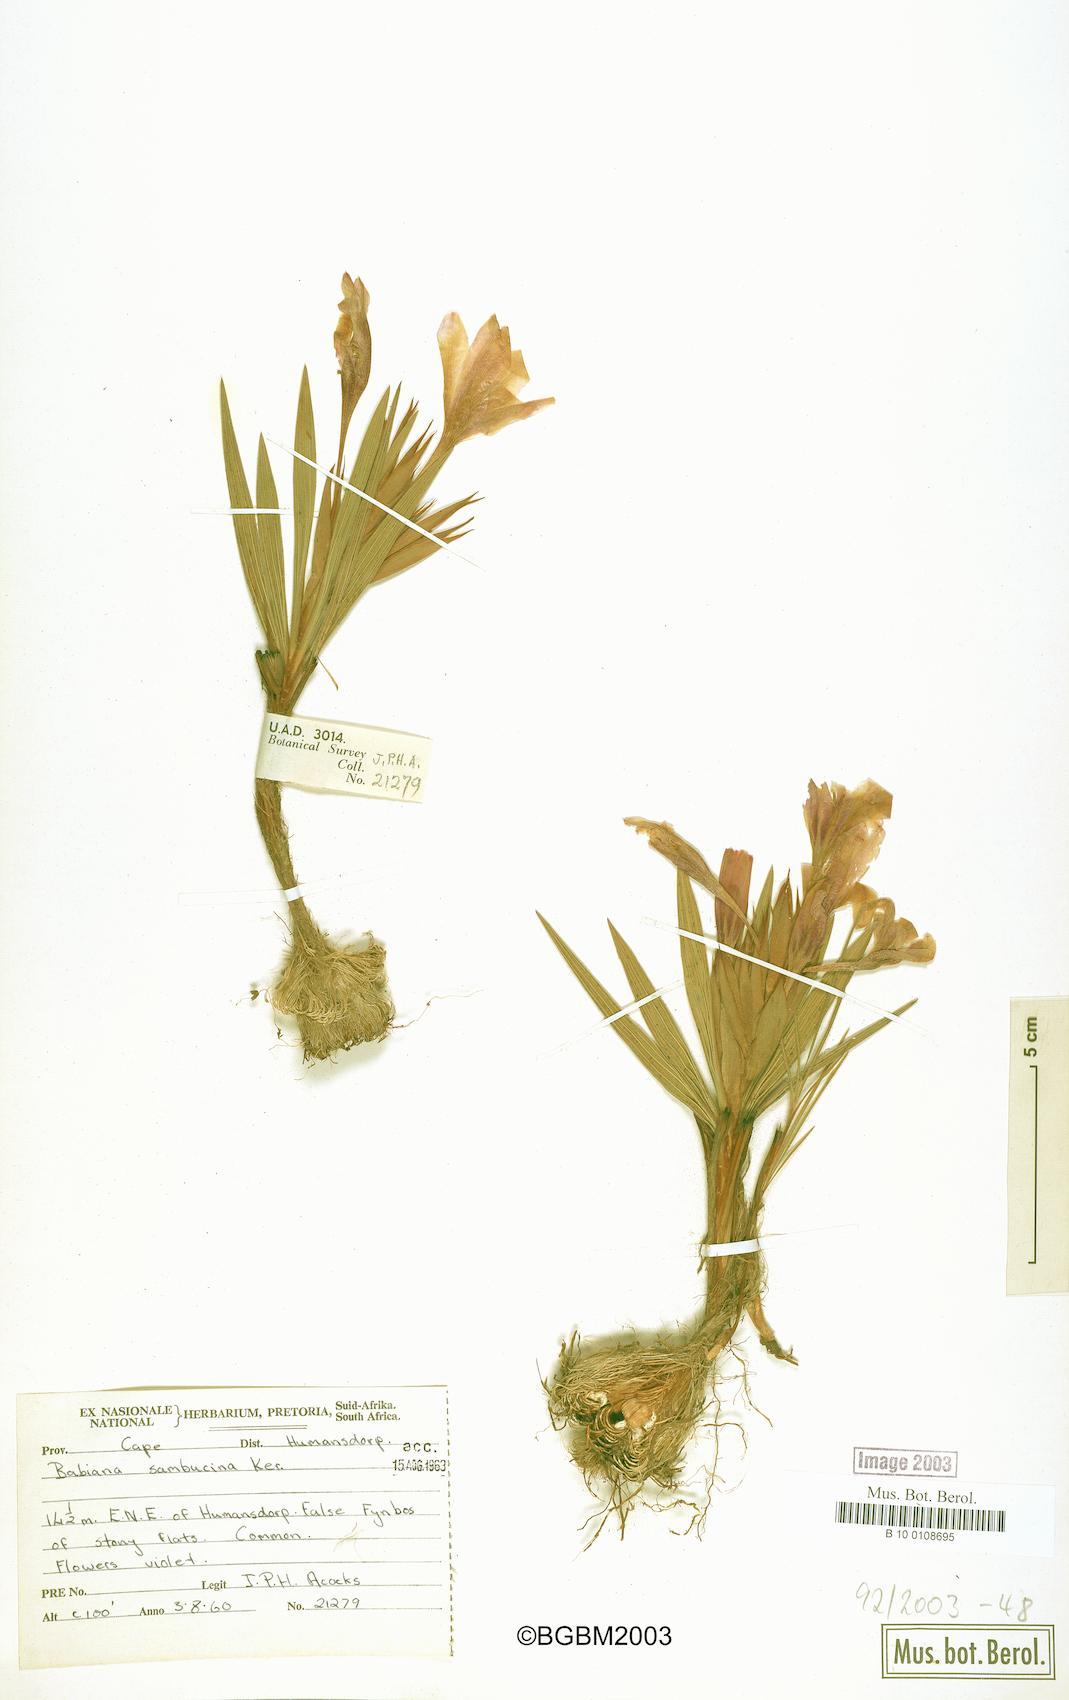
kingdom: Plantae
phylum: Tracheophyta
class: Liliopsida
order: Asparagales
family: Iridaceae
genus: Babiana
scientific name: Babiana sambucina
